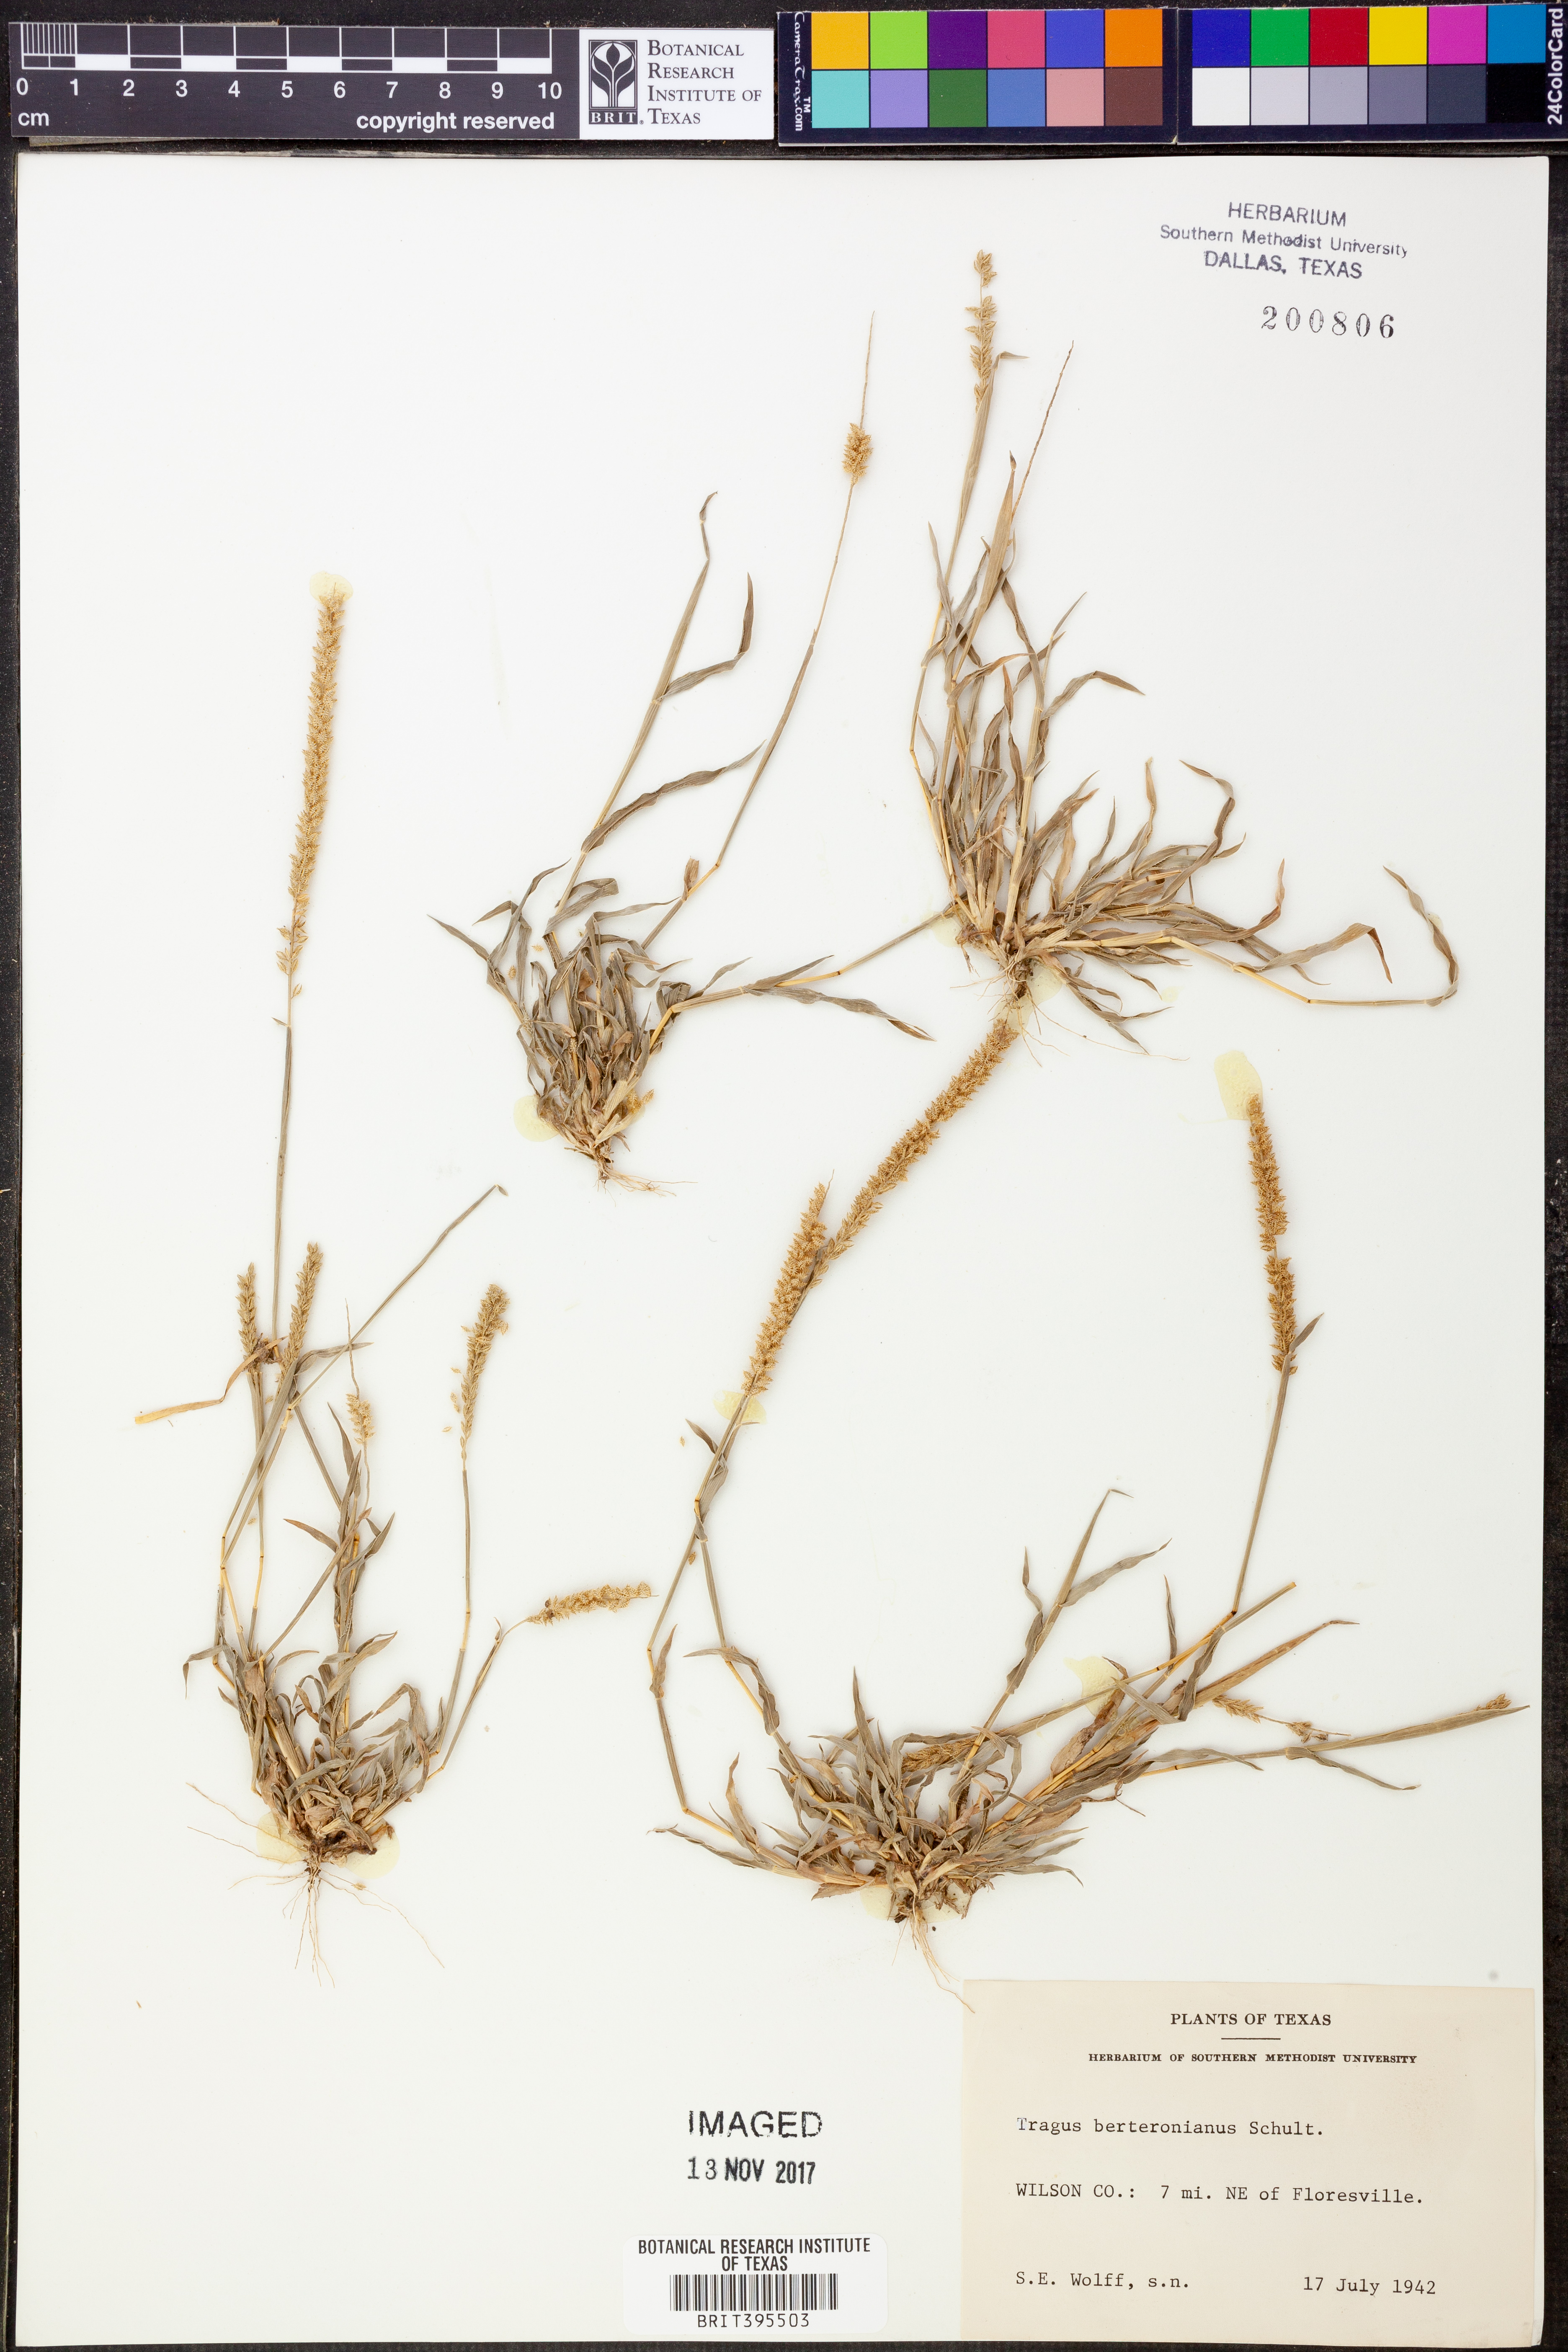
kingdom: Plantae
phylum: Tracheophyta
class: Liliopsida
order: Poales
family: Poaceae
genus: Tragus
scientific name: Tragus berteronianus
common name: African bur-grass
